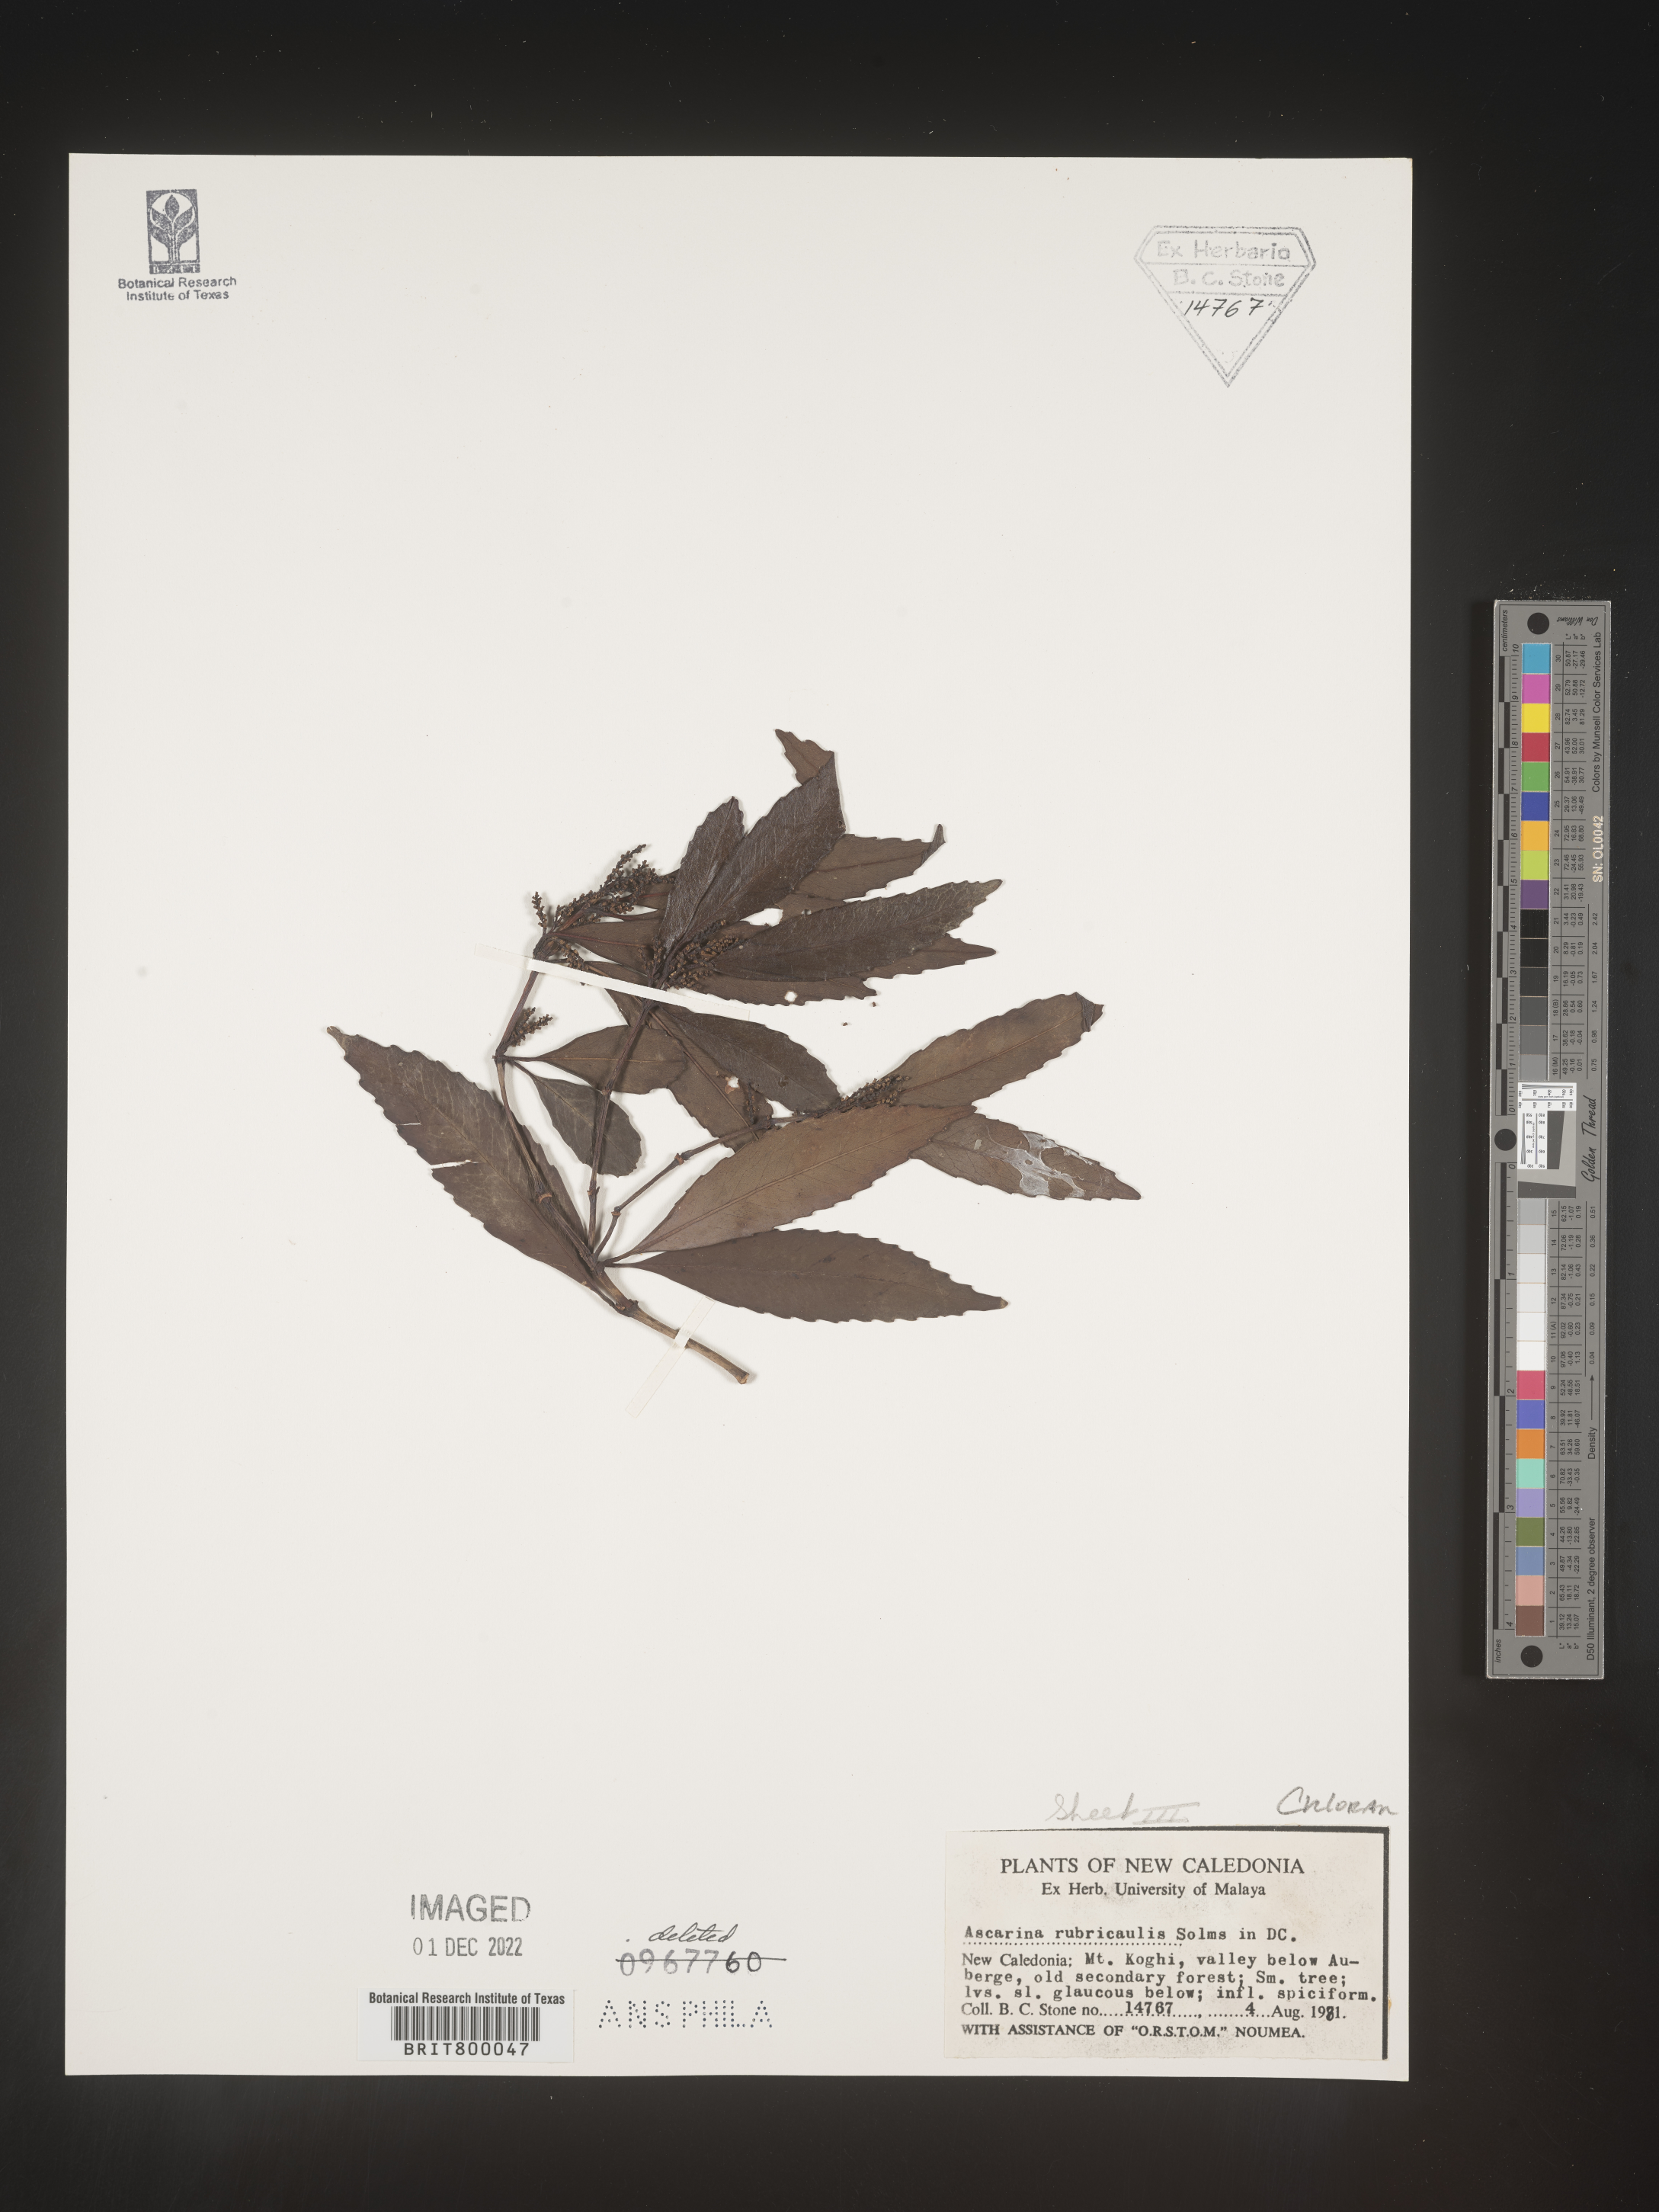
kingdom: Plantae
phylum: Tracheophyta
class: Magnoliopsida
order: Chloranthales
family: Chloranthaceae
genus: Ascarina
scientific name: Ascarina
